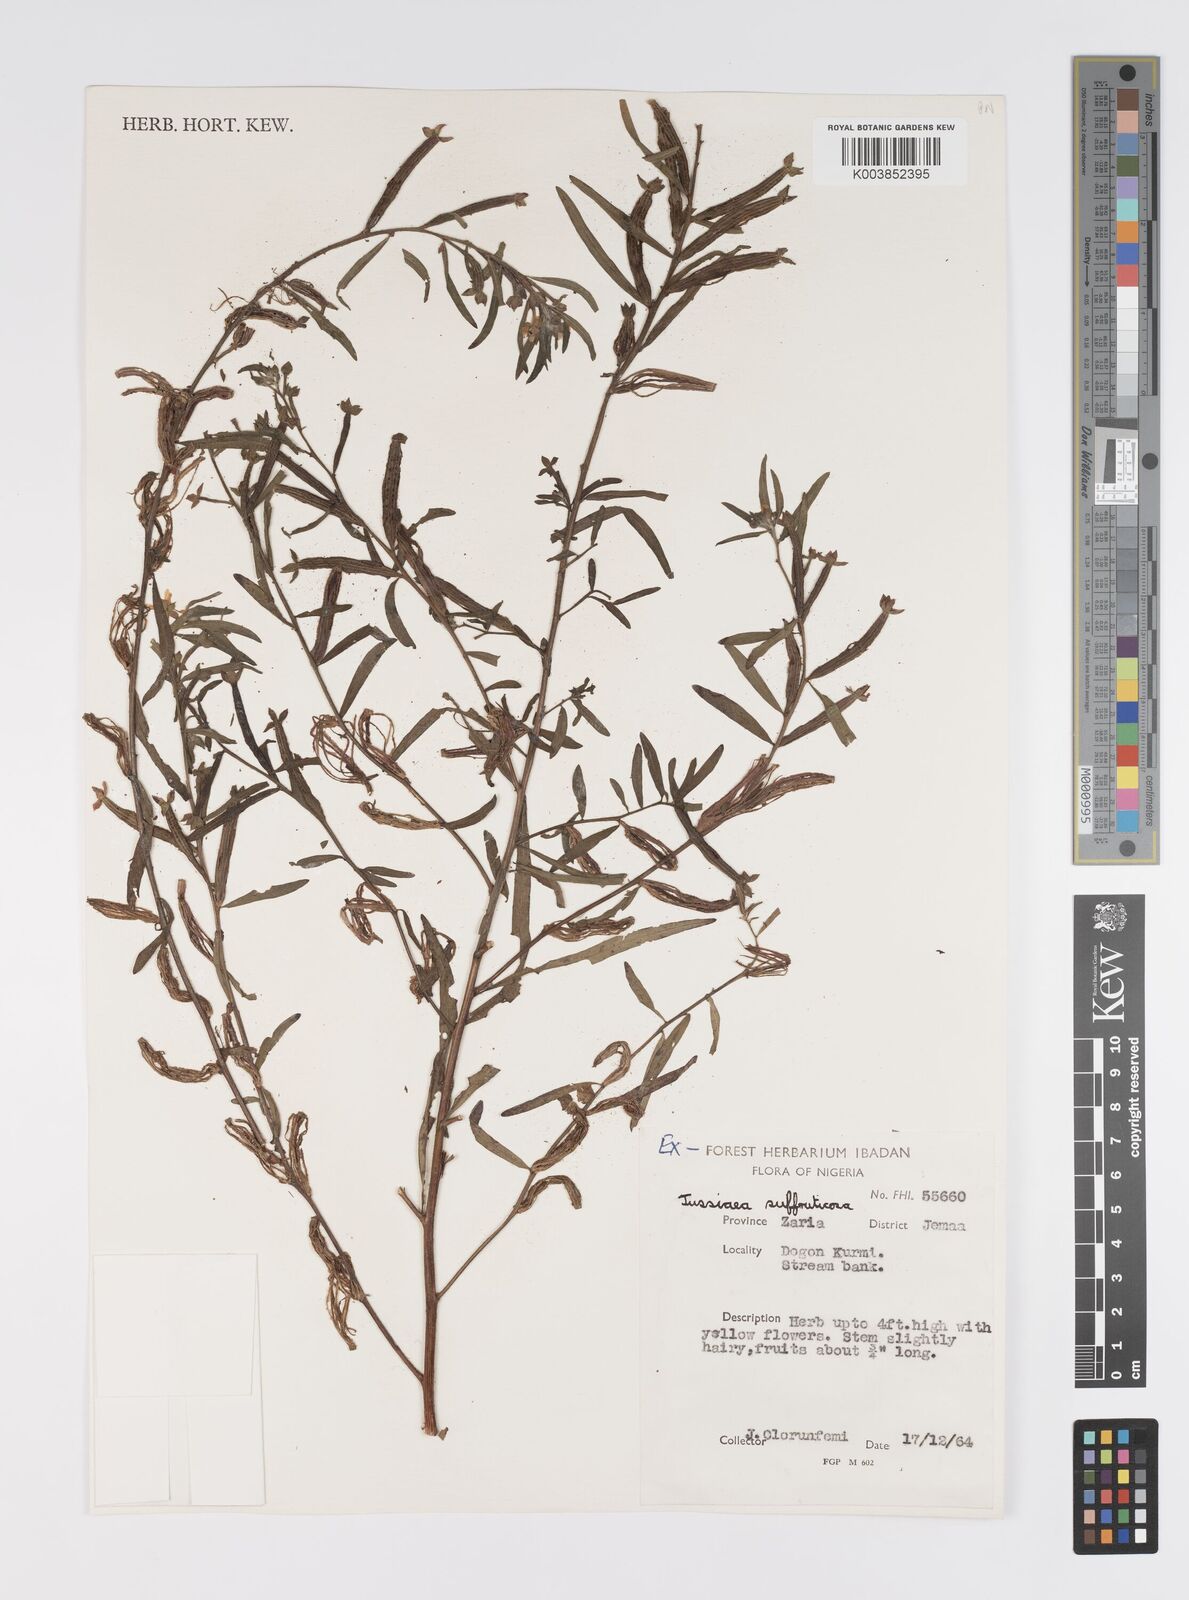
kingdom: Plantae
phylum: Tracheophyta
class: Magnoliopsida
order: Myrtales
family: Onagraceae
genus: Ludwigia
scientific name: Ludwigia octovalvis
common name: Water-primrose
